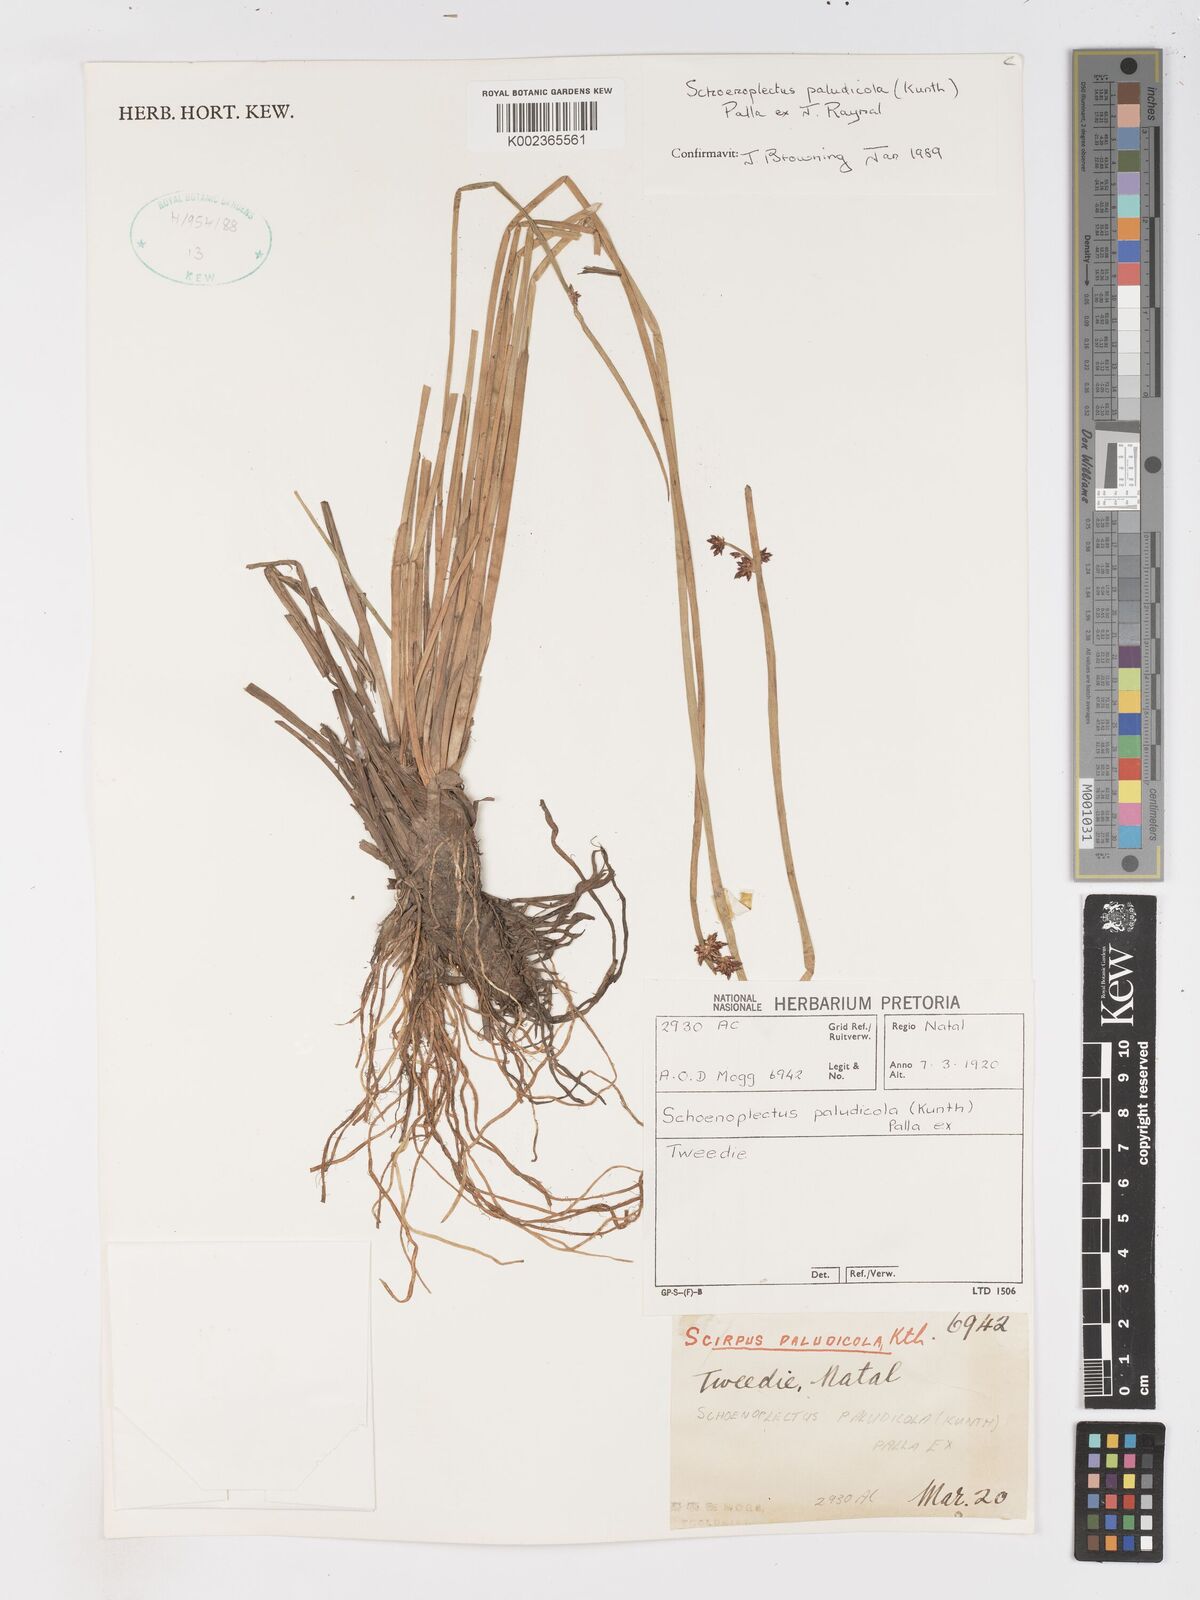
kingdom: Plantae
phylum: Tracheophyta
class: Liliopsida
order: Poales
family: Cyperaceae
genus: Schoenoplectiella
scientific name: Schoenoplectiella paludicola
